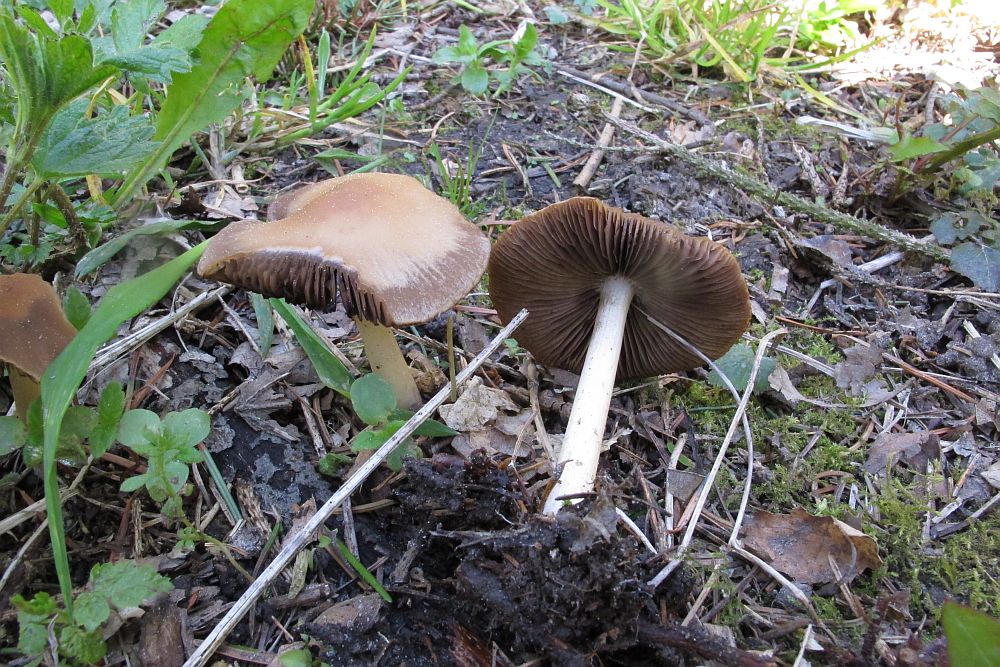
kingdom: Fungi
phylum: Basidiomycota
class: Agaricomycetes
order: Agaricales
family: Psathyrellaceae
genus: Psathyrella
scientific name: Psathyrella spadiceogrisea
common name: gråbrun mørkhat
